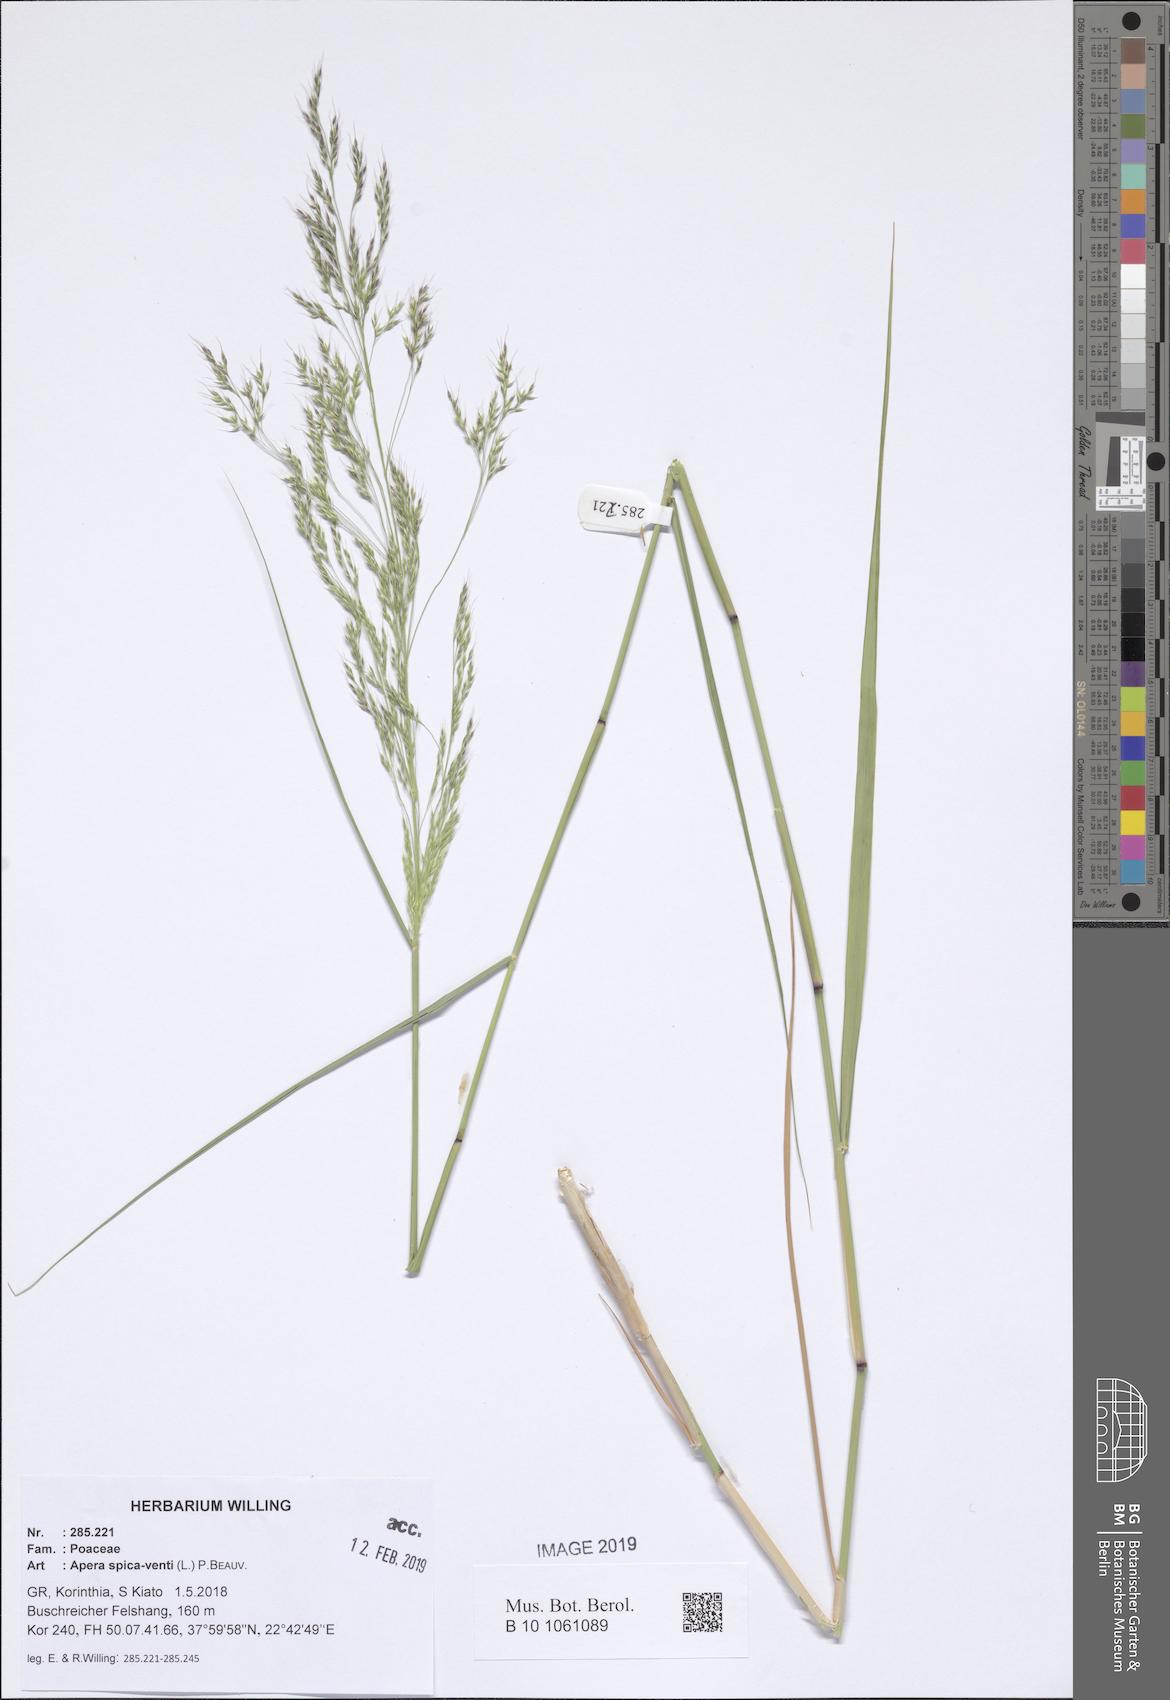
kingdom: Plantae
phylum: Tracheophyta
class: Liliopsida
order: Poales
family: Poaceae
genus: Apera
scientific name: Apera spica-venti
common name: Loose silky-bent
